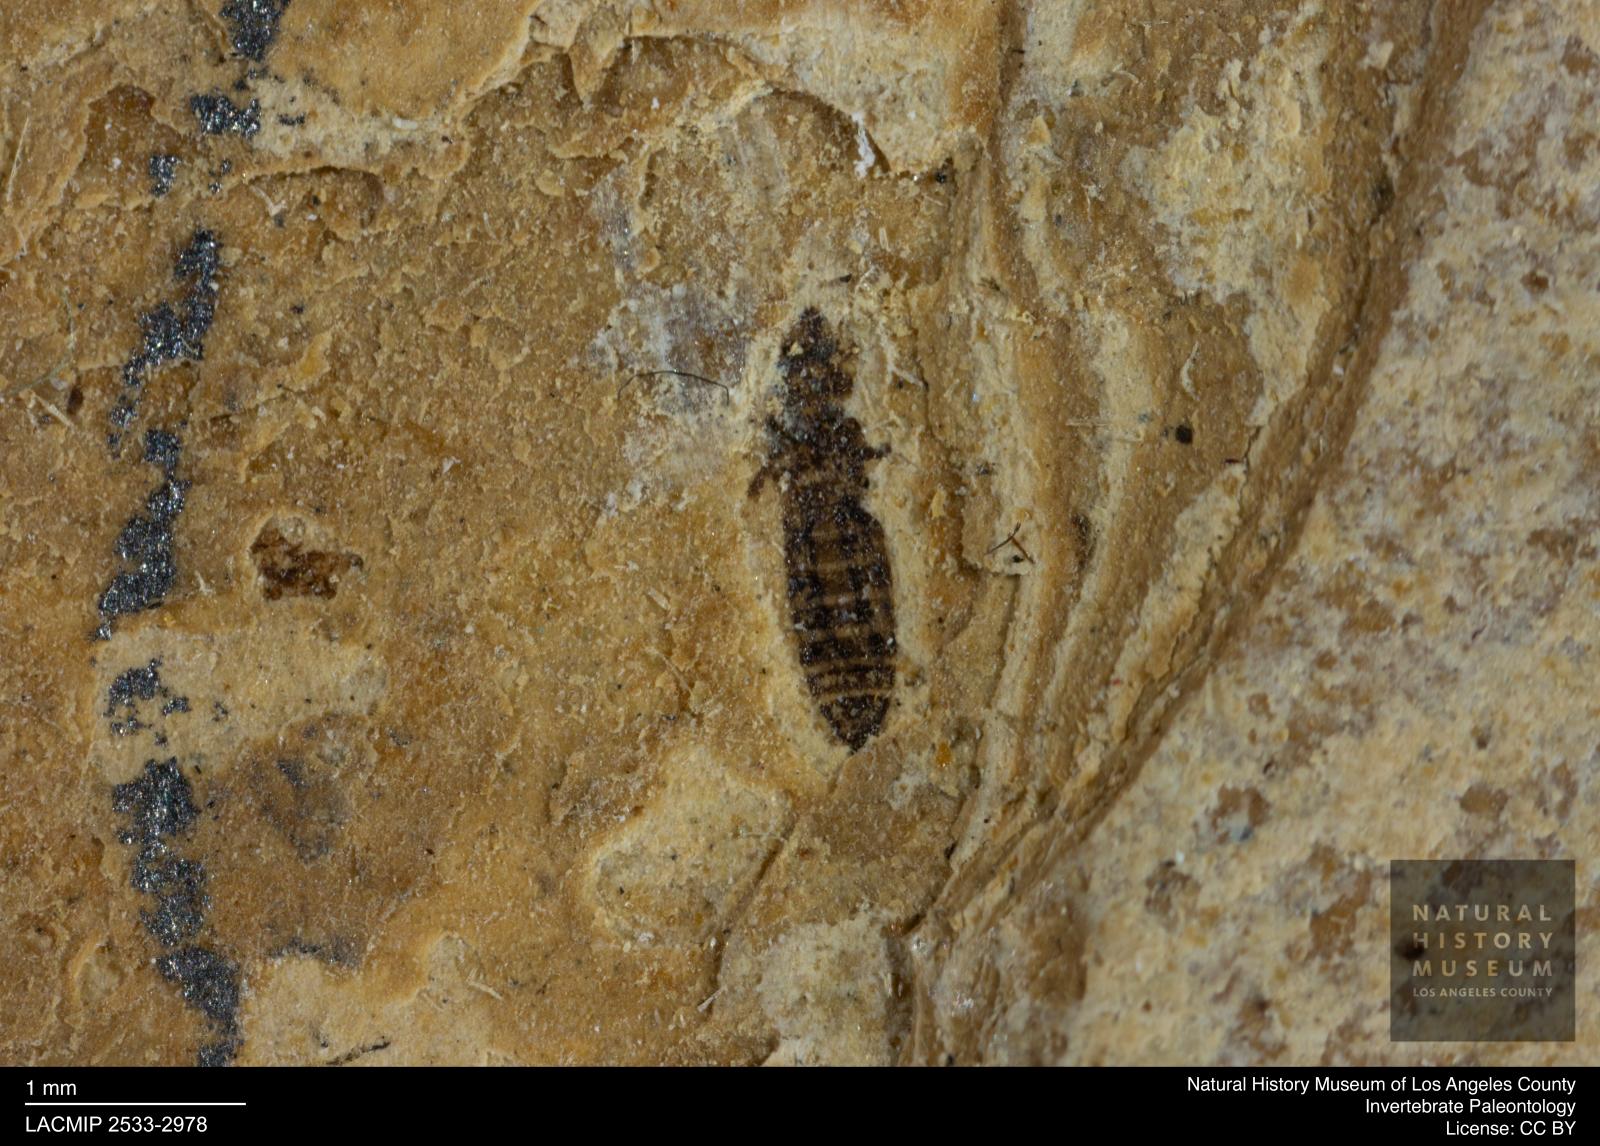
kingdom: Animalia
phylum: Arthropoda
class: Insecta
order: Thysanoptera
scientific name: Thysanoptera
